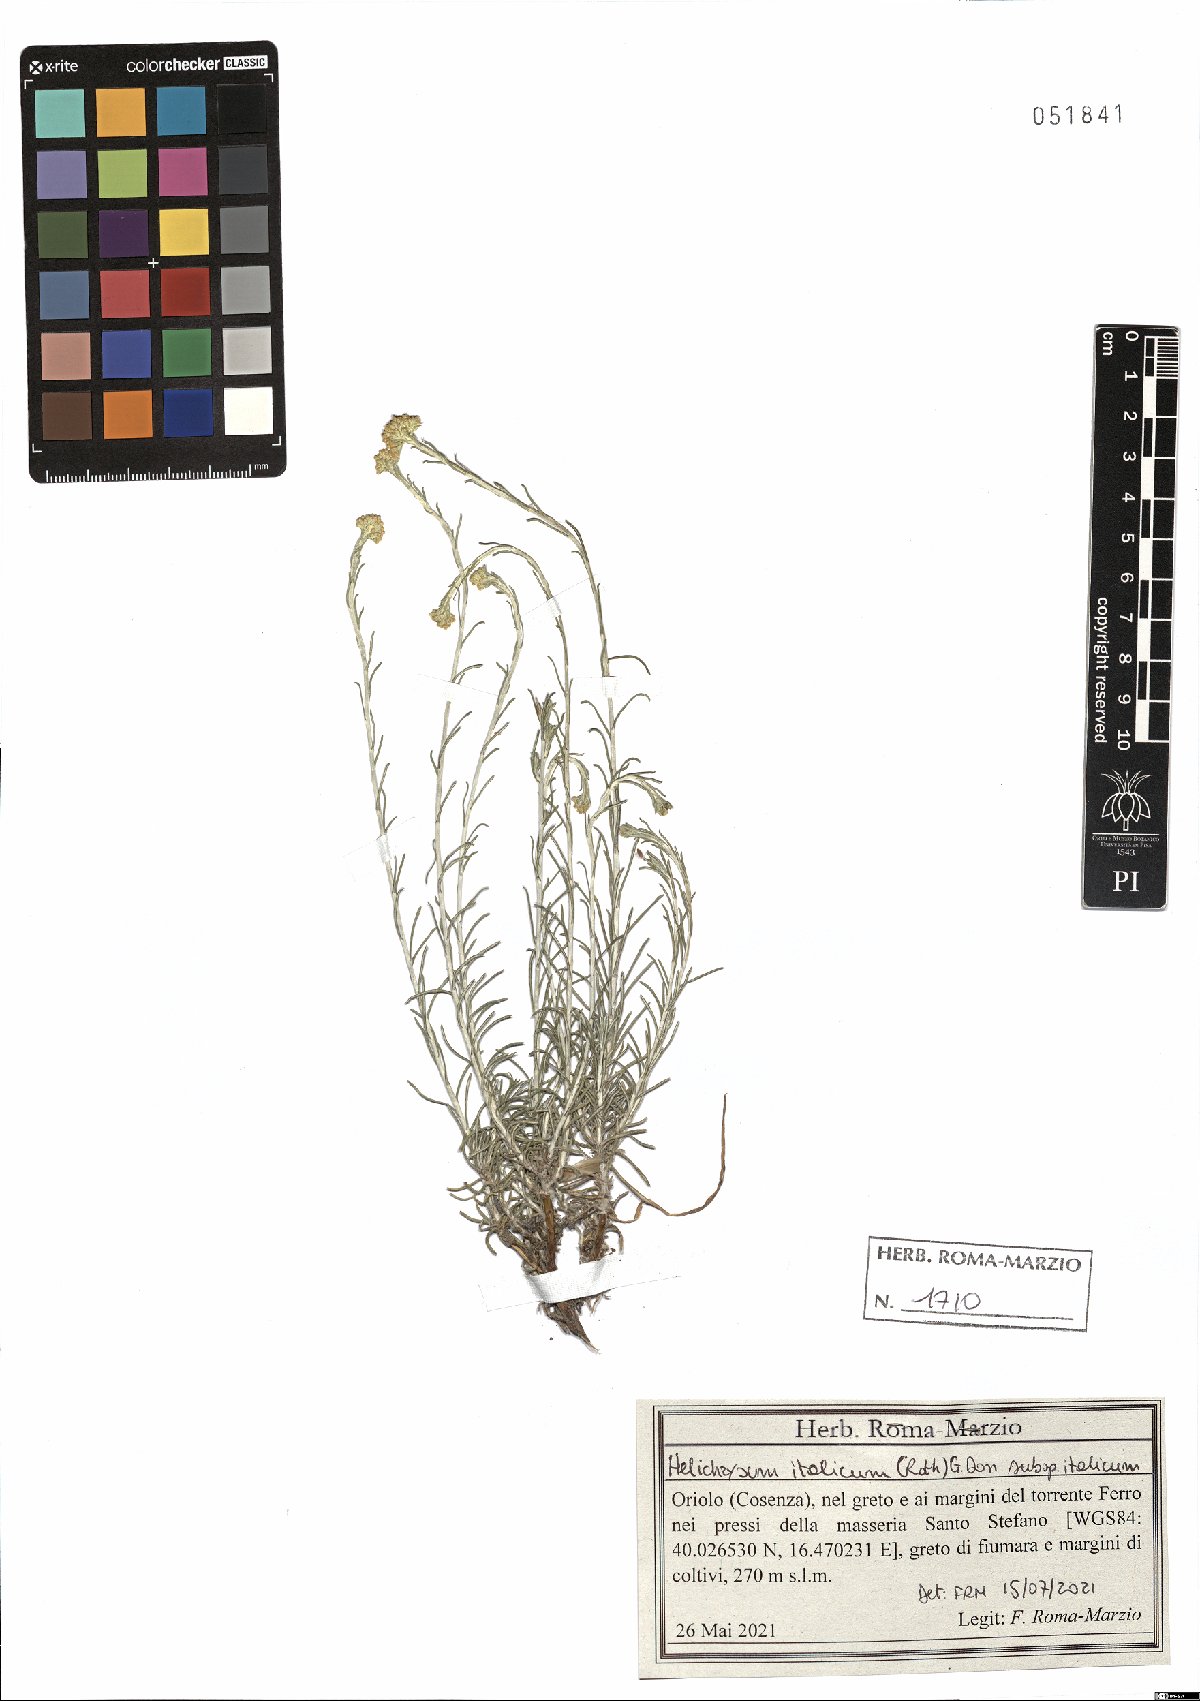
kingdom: Plantae
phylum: Tracheophyta
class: Magnoliopsida
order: Asterales
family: Asteraceae
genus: Helichrysum
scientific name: Helichrysum italicum
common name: Curryplant
